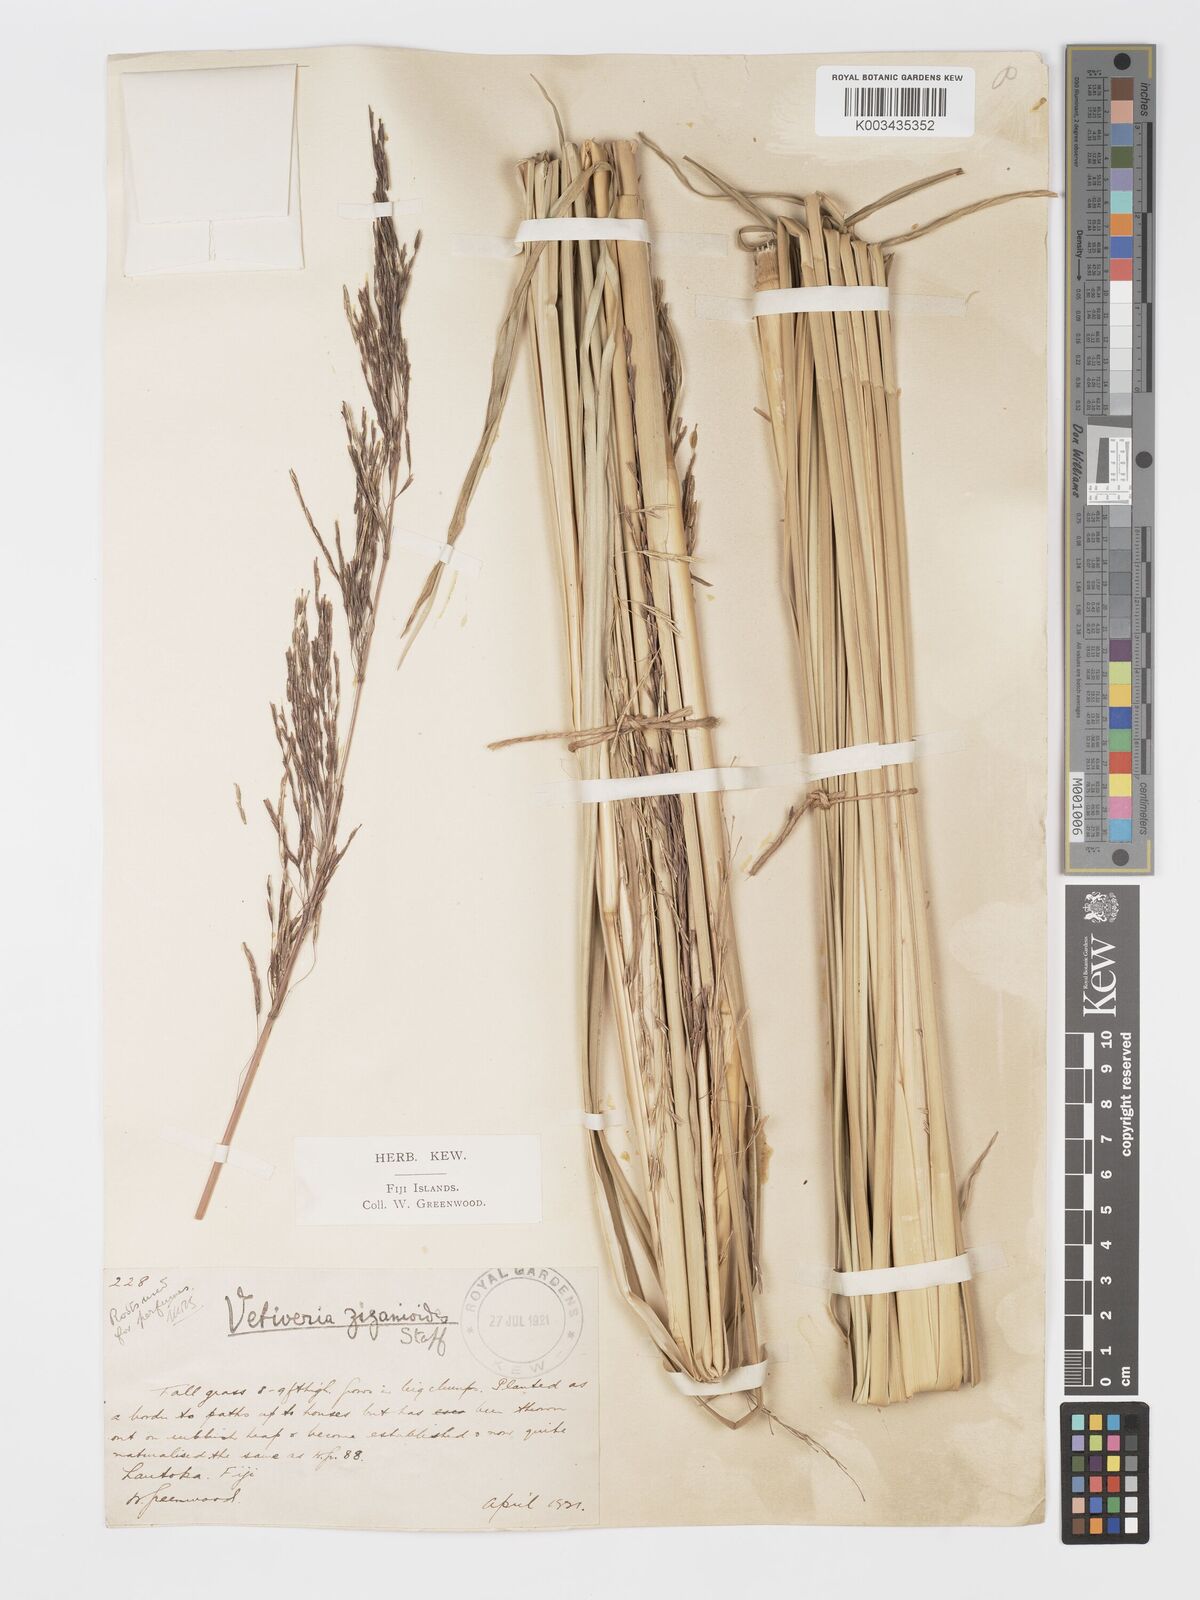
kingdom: Plantae
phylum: Tracheophyta
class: Liliopsida
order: Poales
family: Poaceae
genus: Chrysopogon
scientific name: Chrysopogon zizanioides
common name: False beardgrass
